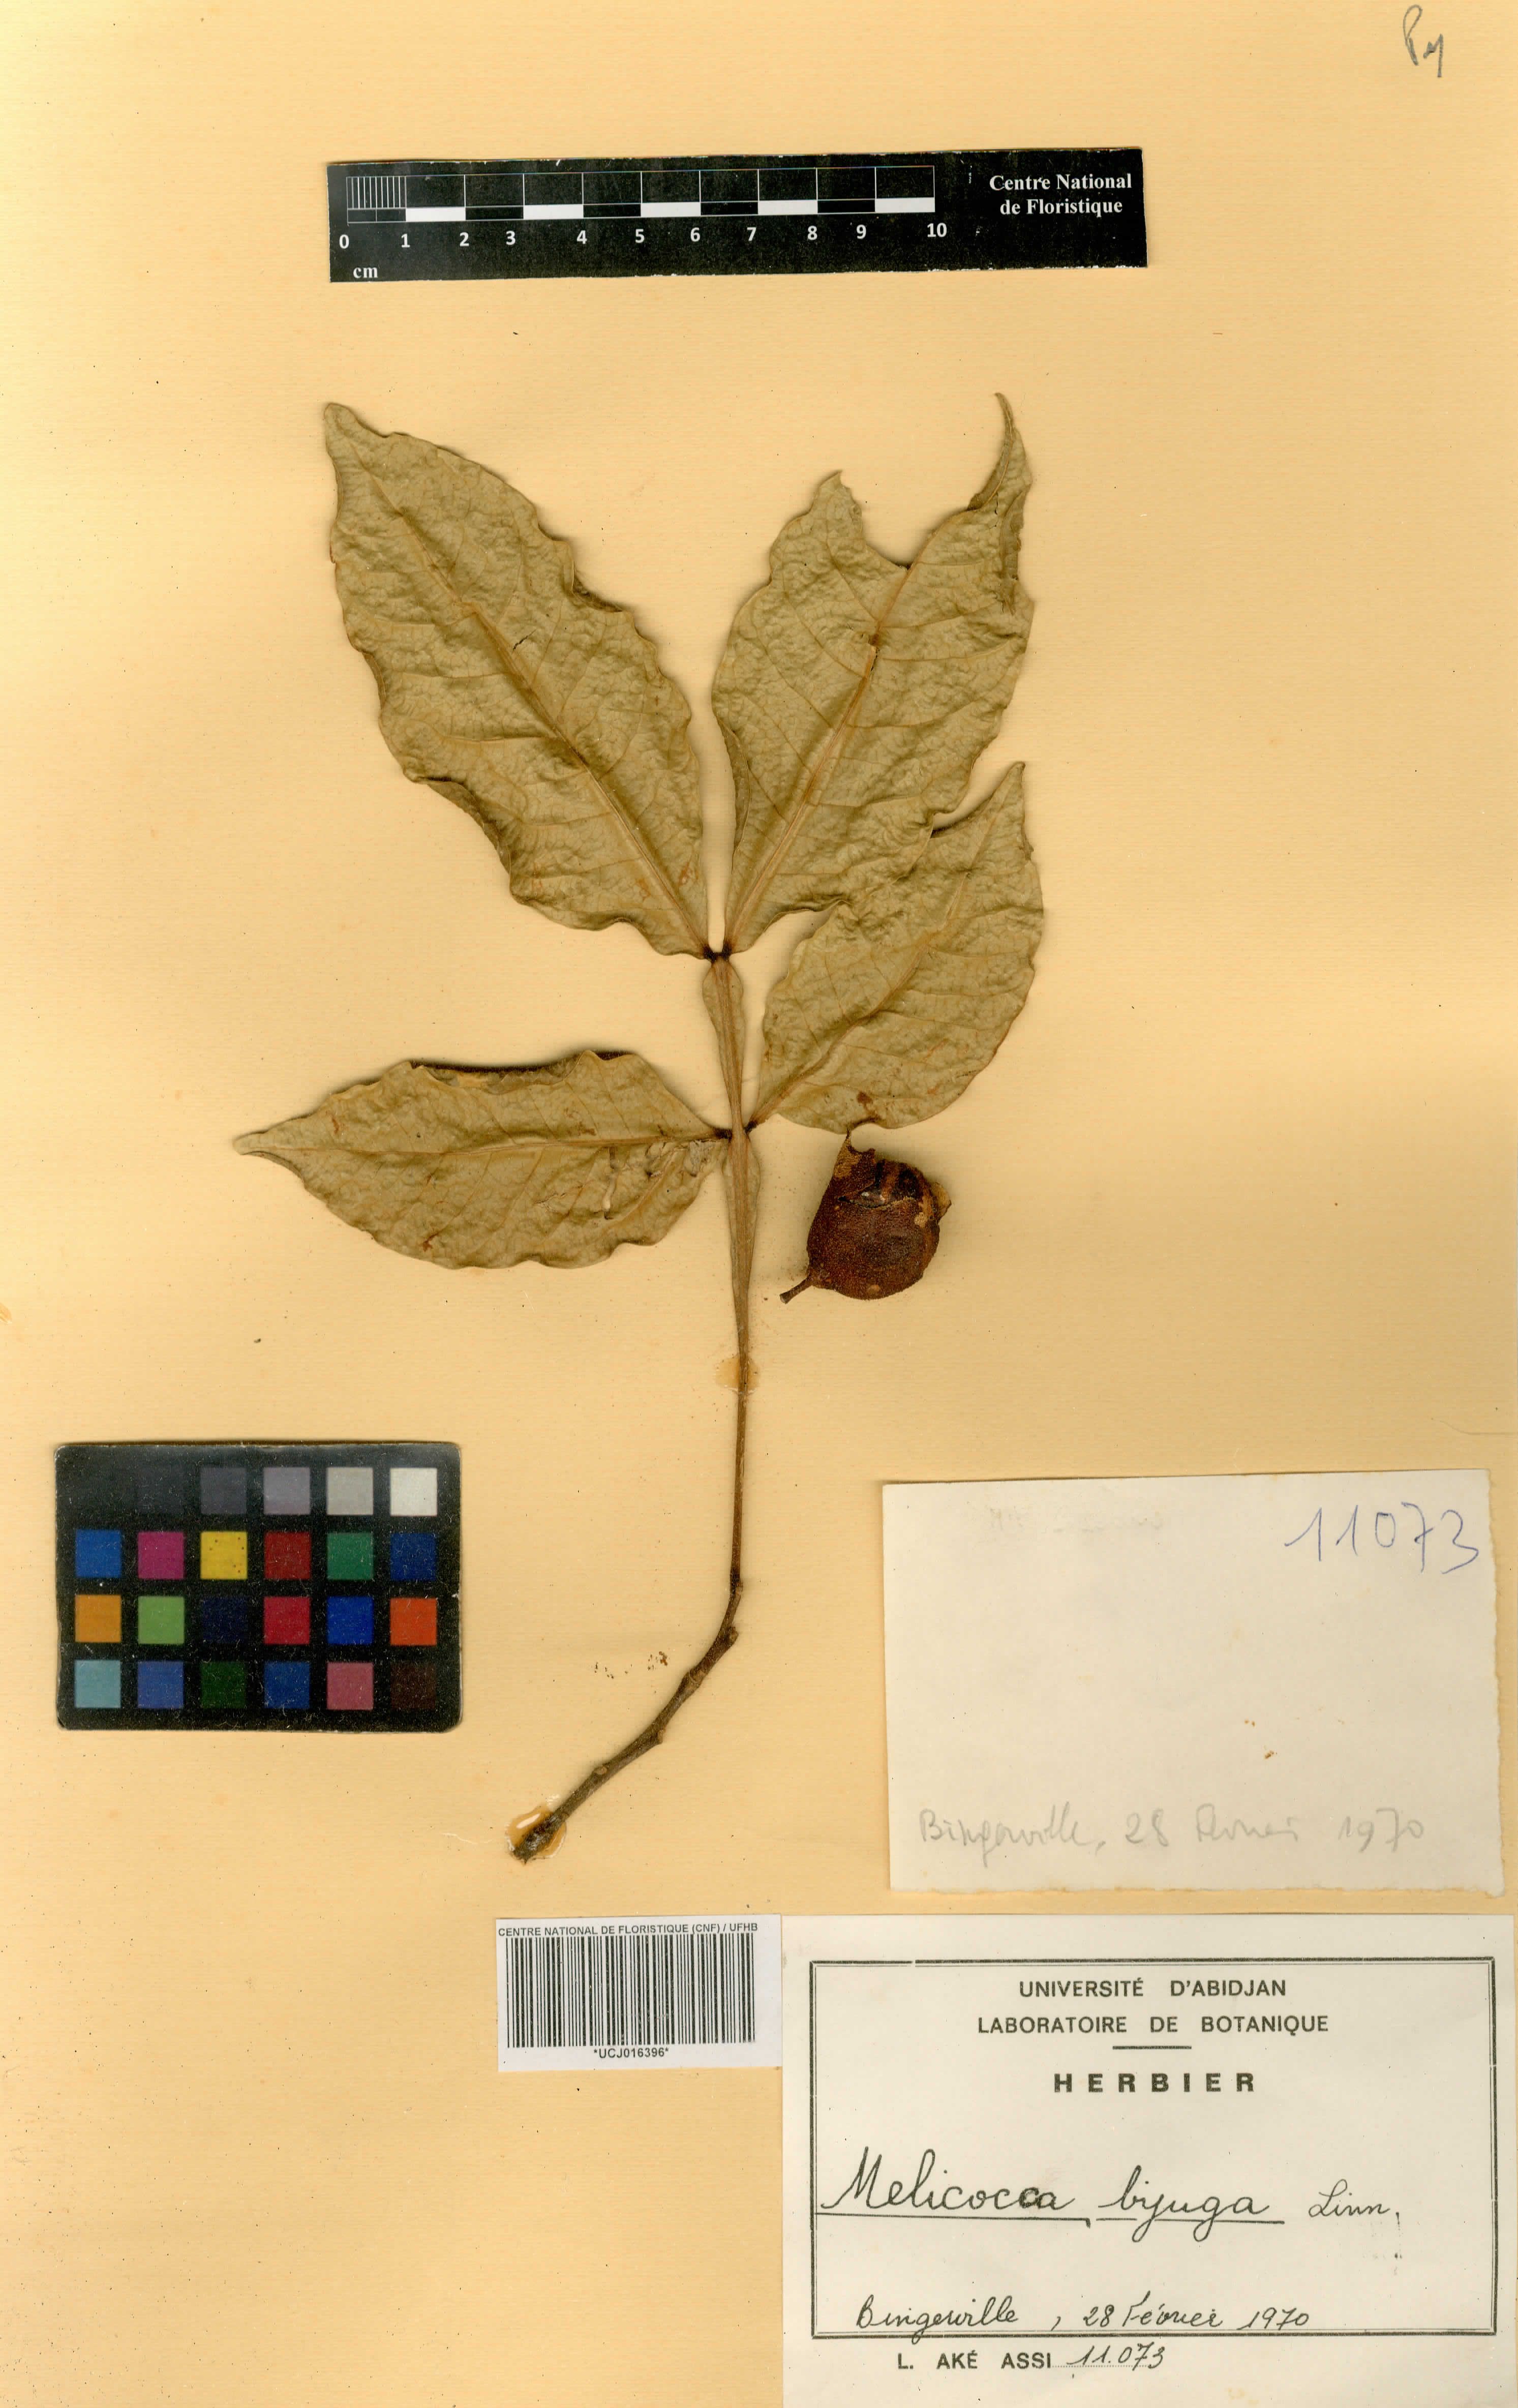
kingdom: Plantae
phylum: Tracheophyta
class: Magnoliopsida
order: Sapindales
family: Sapindaceae
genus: Melicoccus
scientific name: Melicoccus bijugatus
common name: Spanish lime
